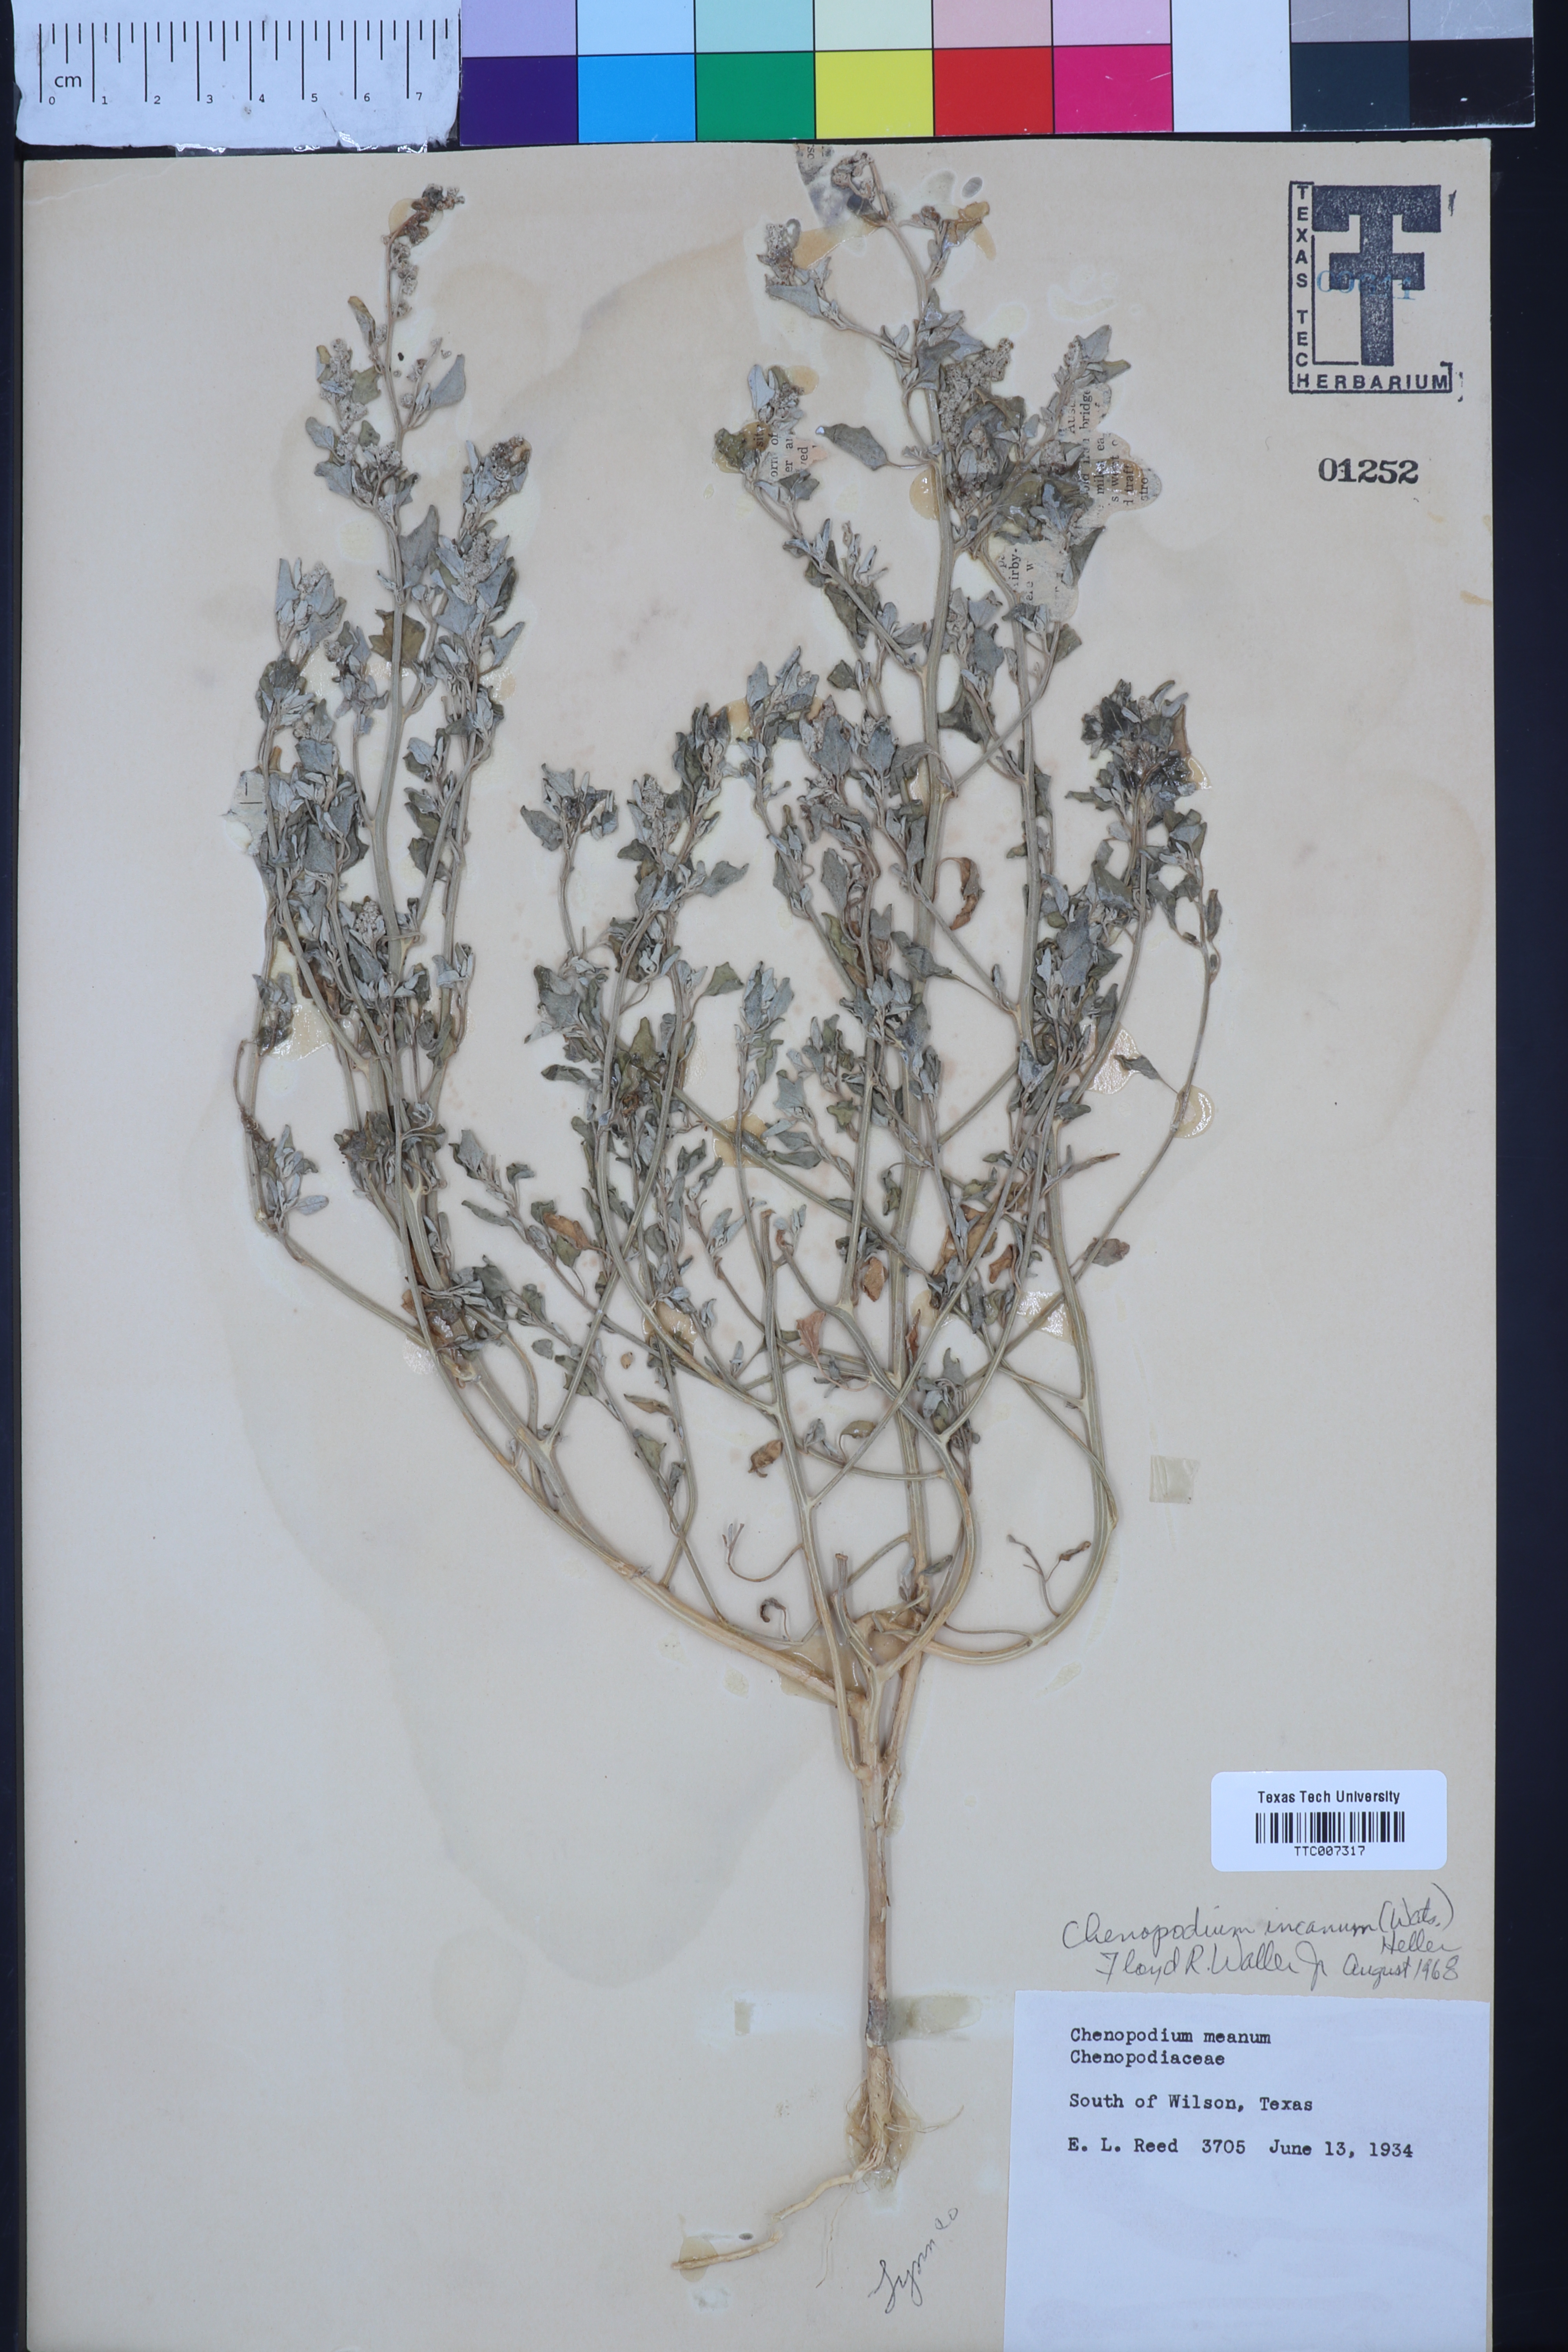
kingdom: Plantae
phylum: Tracheophyta
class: Magnoliopsida
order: Caryophyllales
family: Amaranthaceae
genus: Chenopodium
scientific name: Chenopodium incanum
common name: Hoary goosefoot
